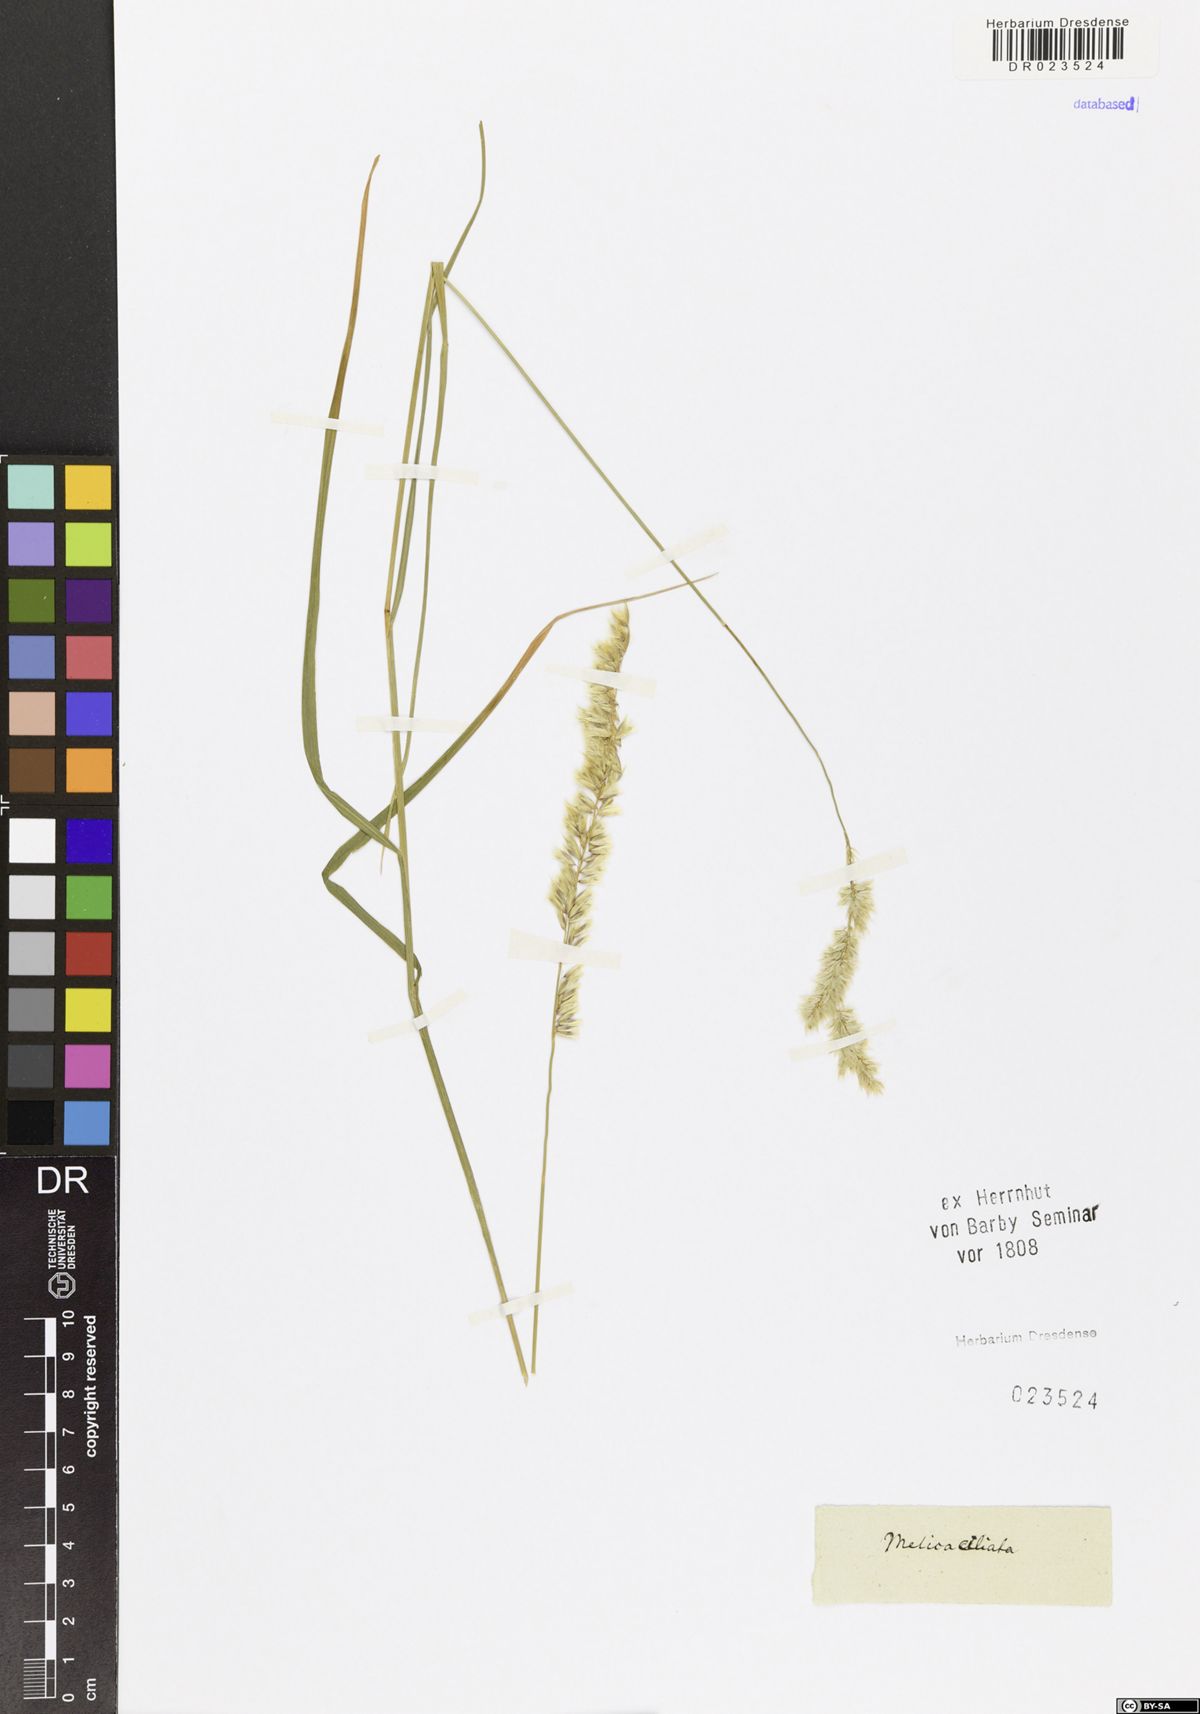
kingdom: Plantae
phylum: Tracheophyta
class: Liliopsida
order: Poales
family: Poaceae
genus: Melica
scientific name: Melica ciliata
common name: Hairy melicgrass
